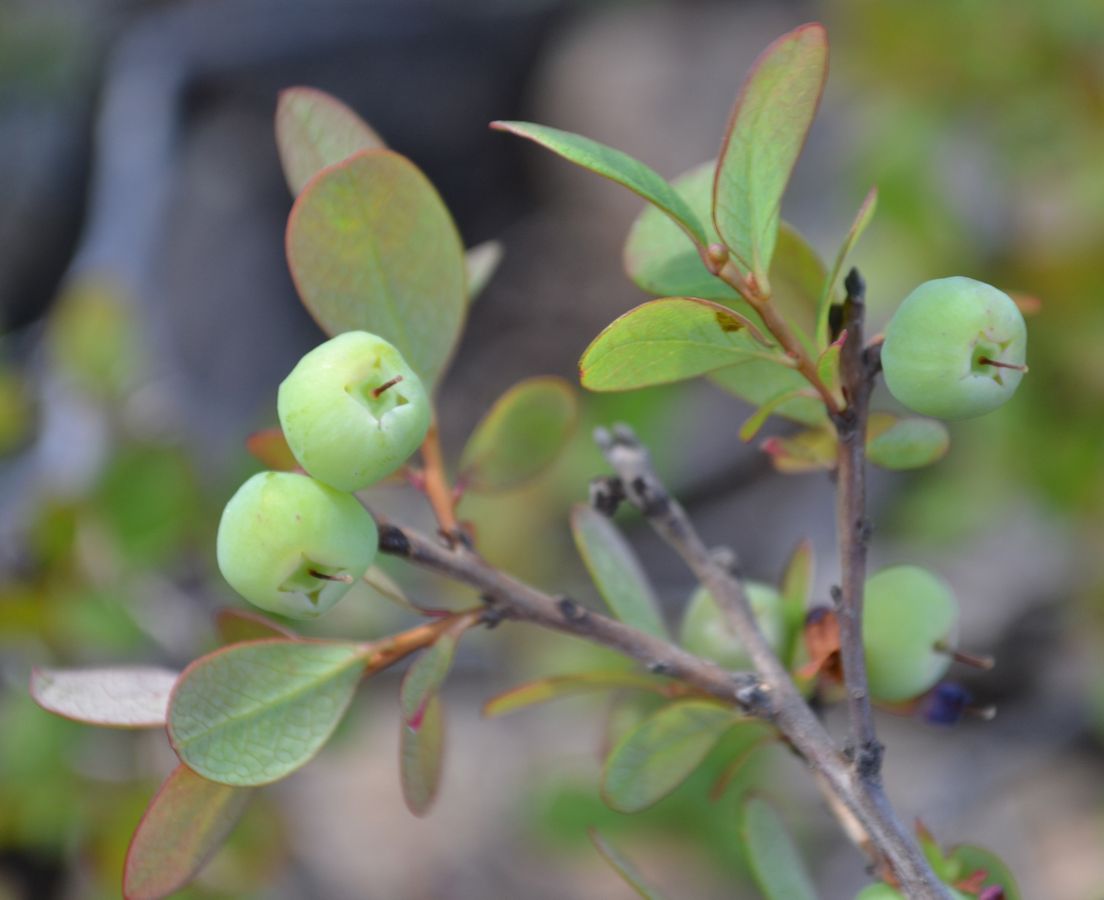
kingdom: Plantae
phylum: Tracheophyta
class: Magnoliopsida
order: Ericales
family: Ericaceae
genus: Vaccinium
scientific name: Vaccinium uliginosum
